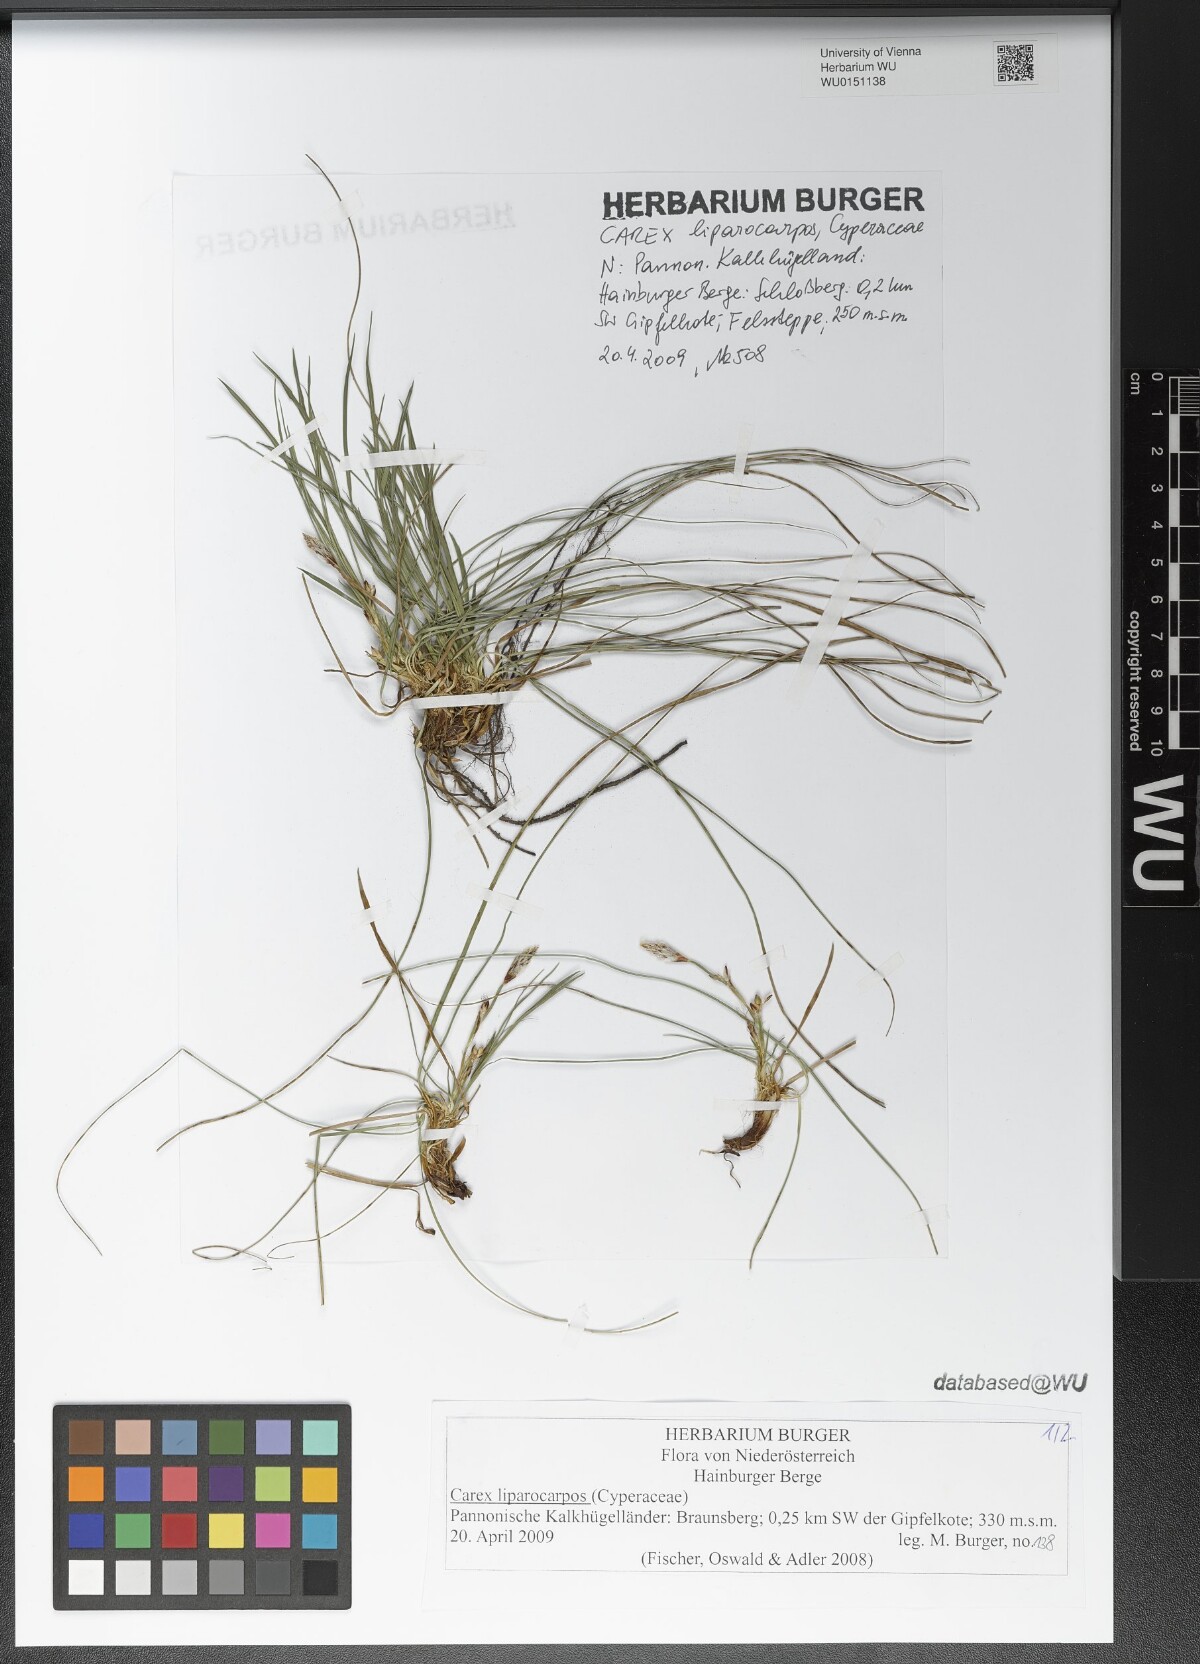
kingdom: Plantae
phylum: Tracheophyta
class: Liliopsida
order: Poales
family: Cyperaceae
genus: Carex
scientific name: Carex liparocarpos
